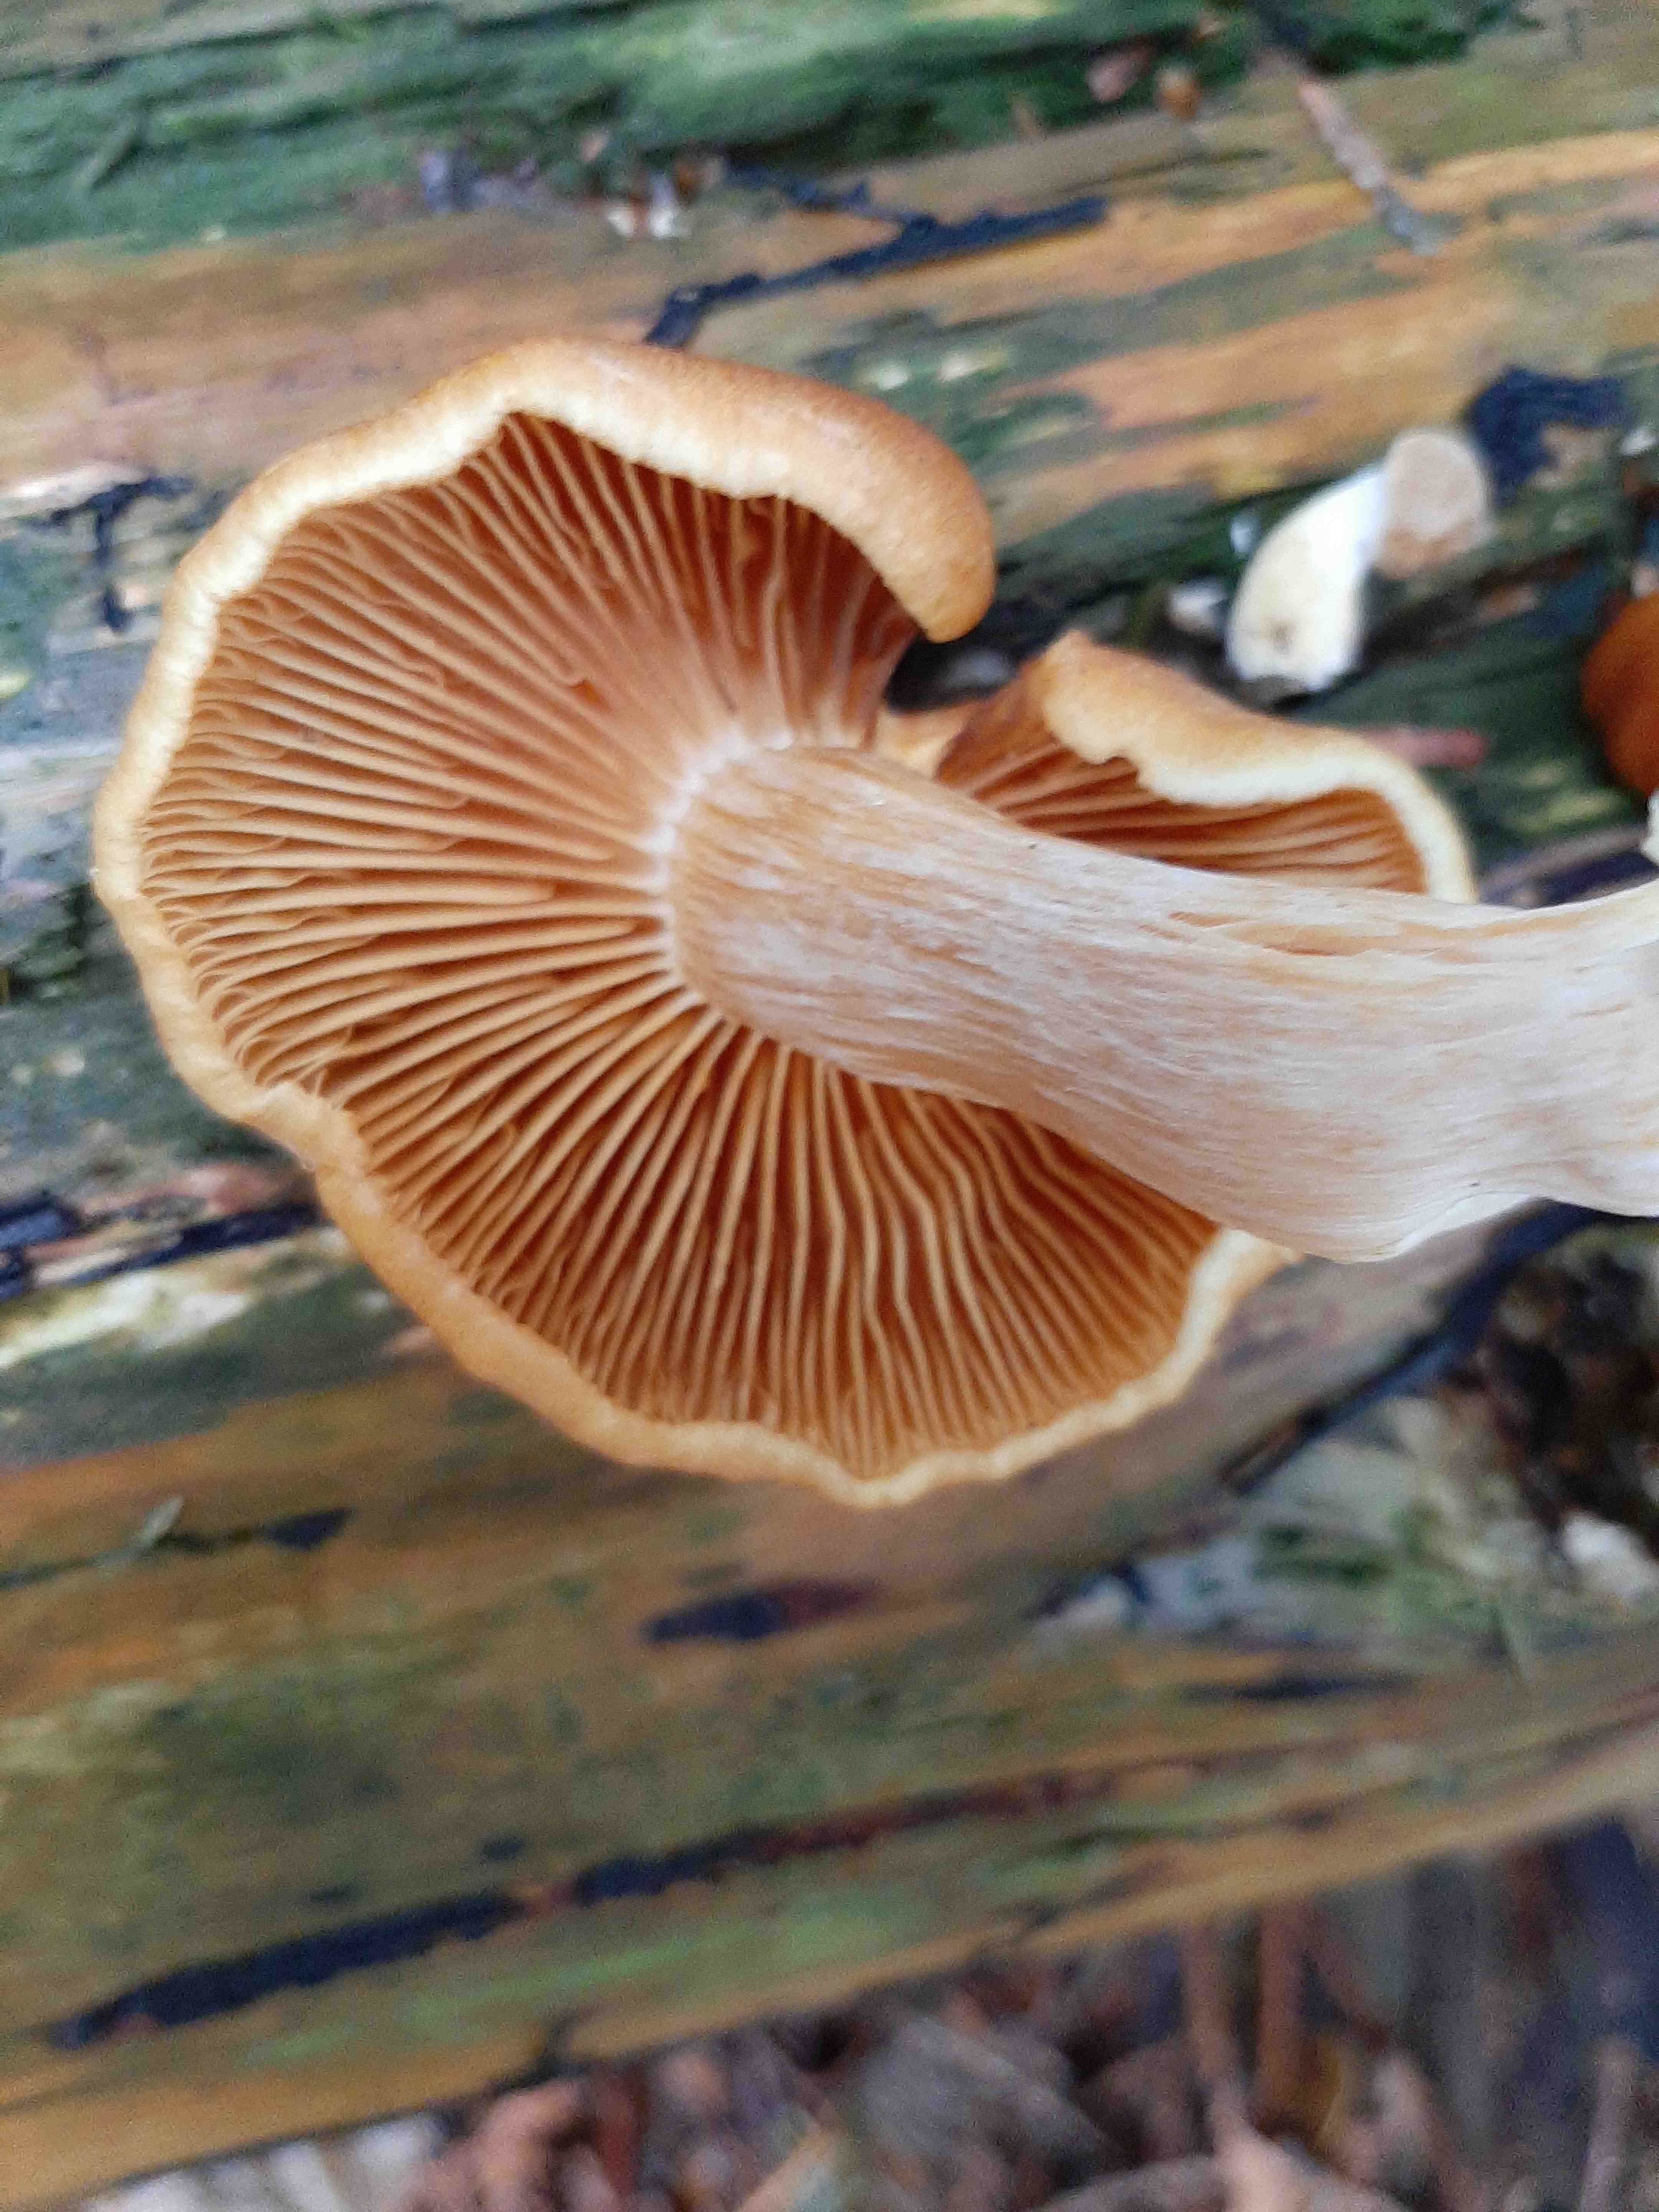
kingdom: Fungi
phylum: Basidiomycota
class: Agaricomycetes
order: Agaricales
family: Hymenogastraceae
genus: Gymnopilus
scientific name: Gymnopilus penetrans
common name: plettet flammehat
